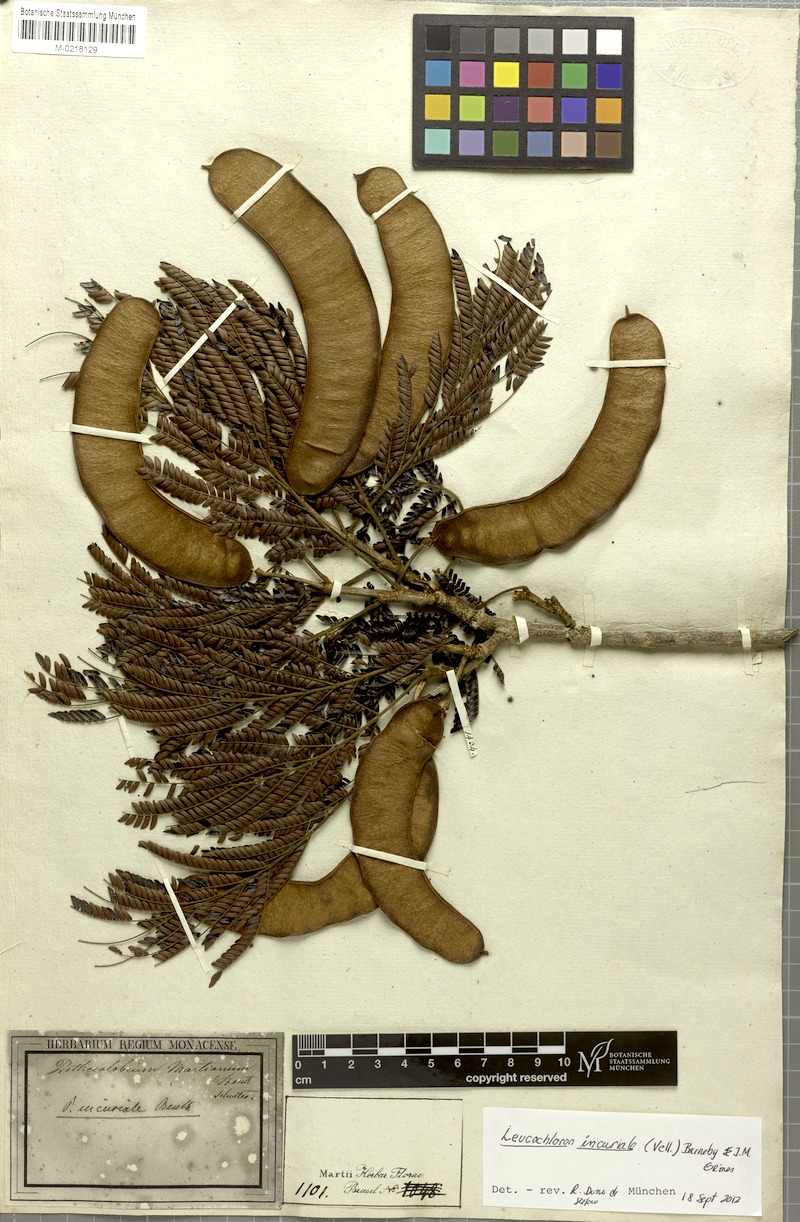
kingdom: Plantae
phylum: Tracheophyta
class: Magnoliopsida
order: Fabales
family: Fabaceae
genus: Leucochloron
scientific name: Leucochloron incuriale
